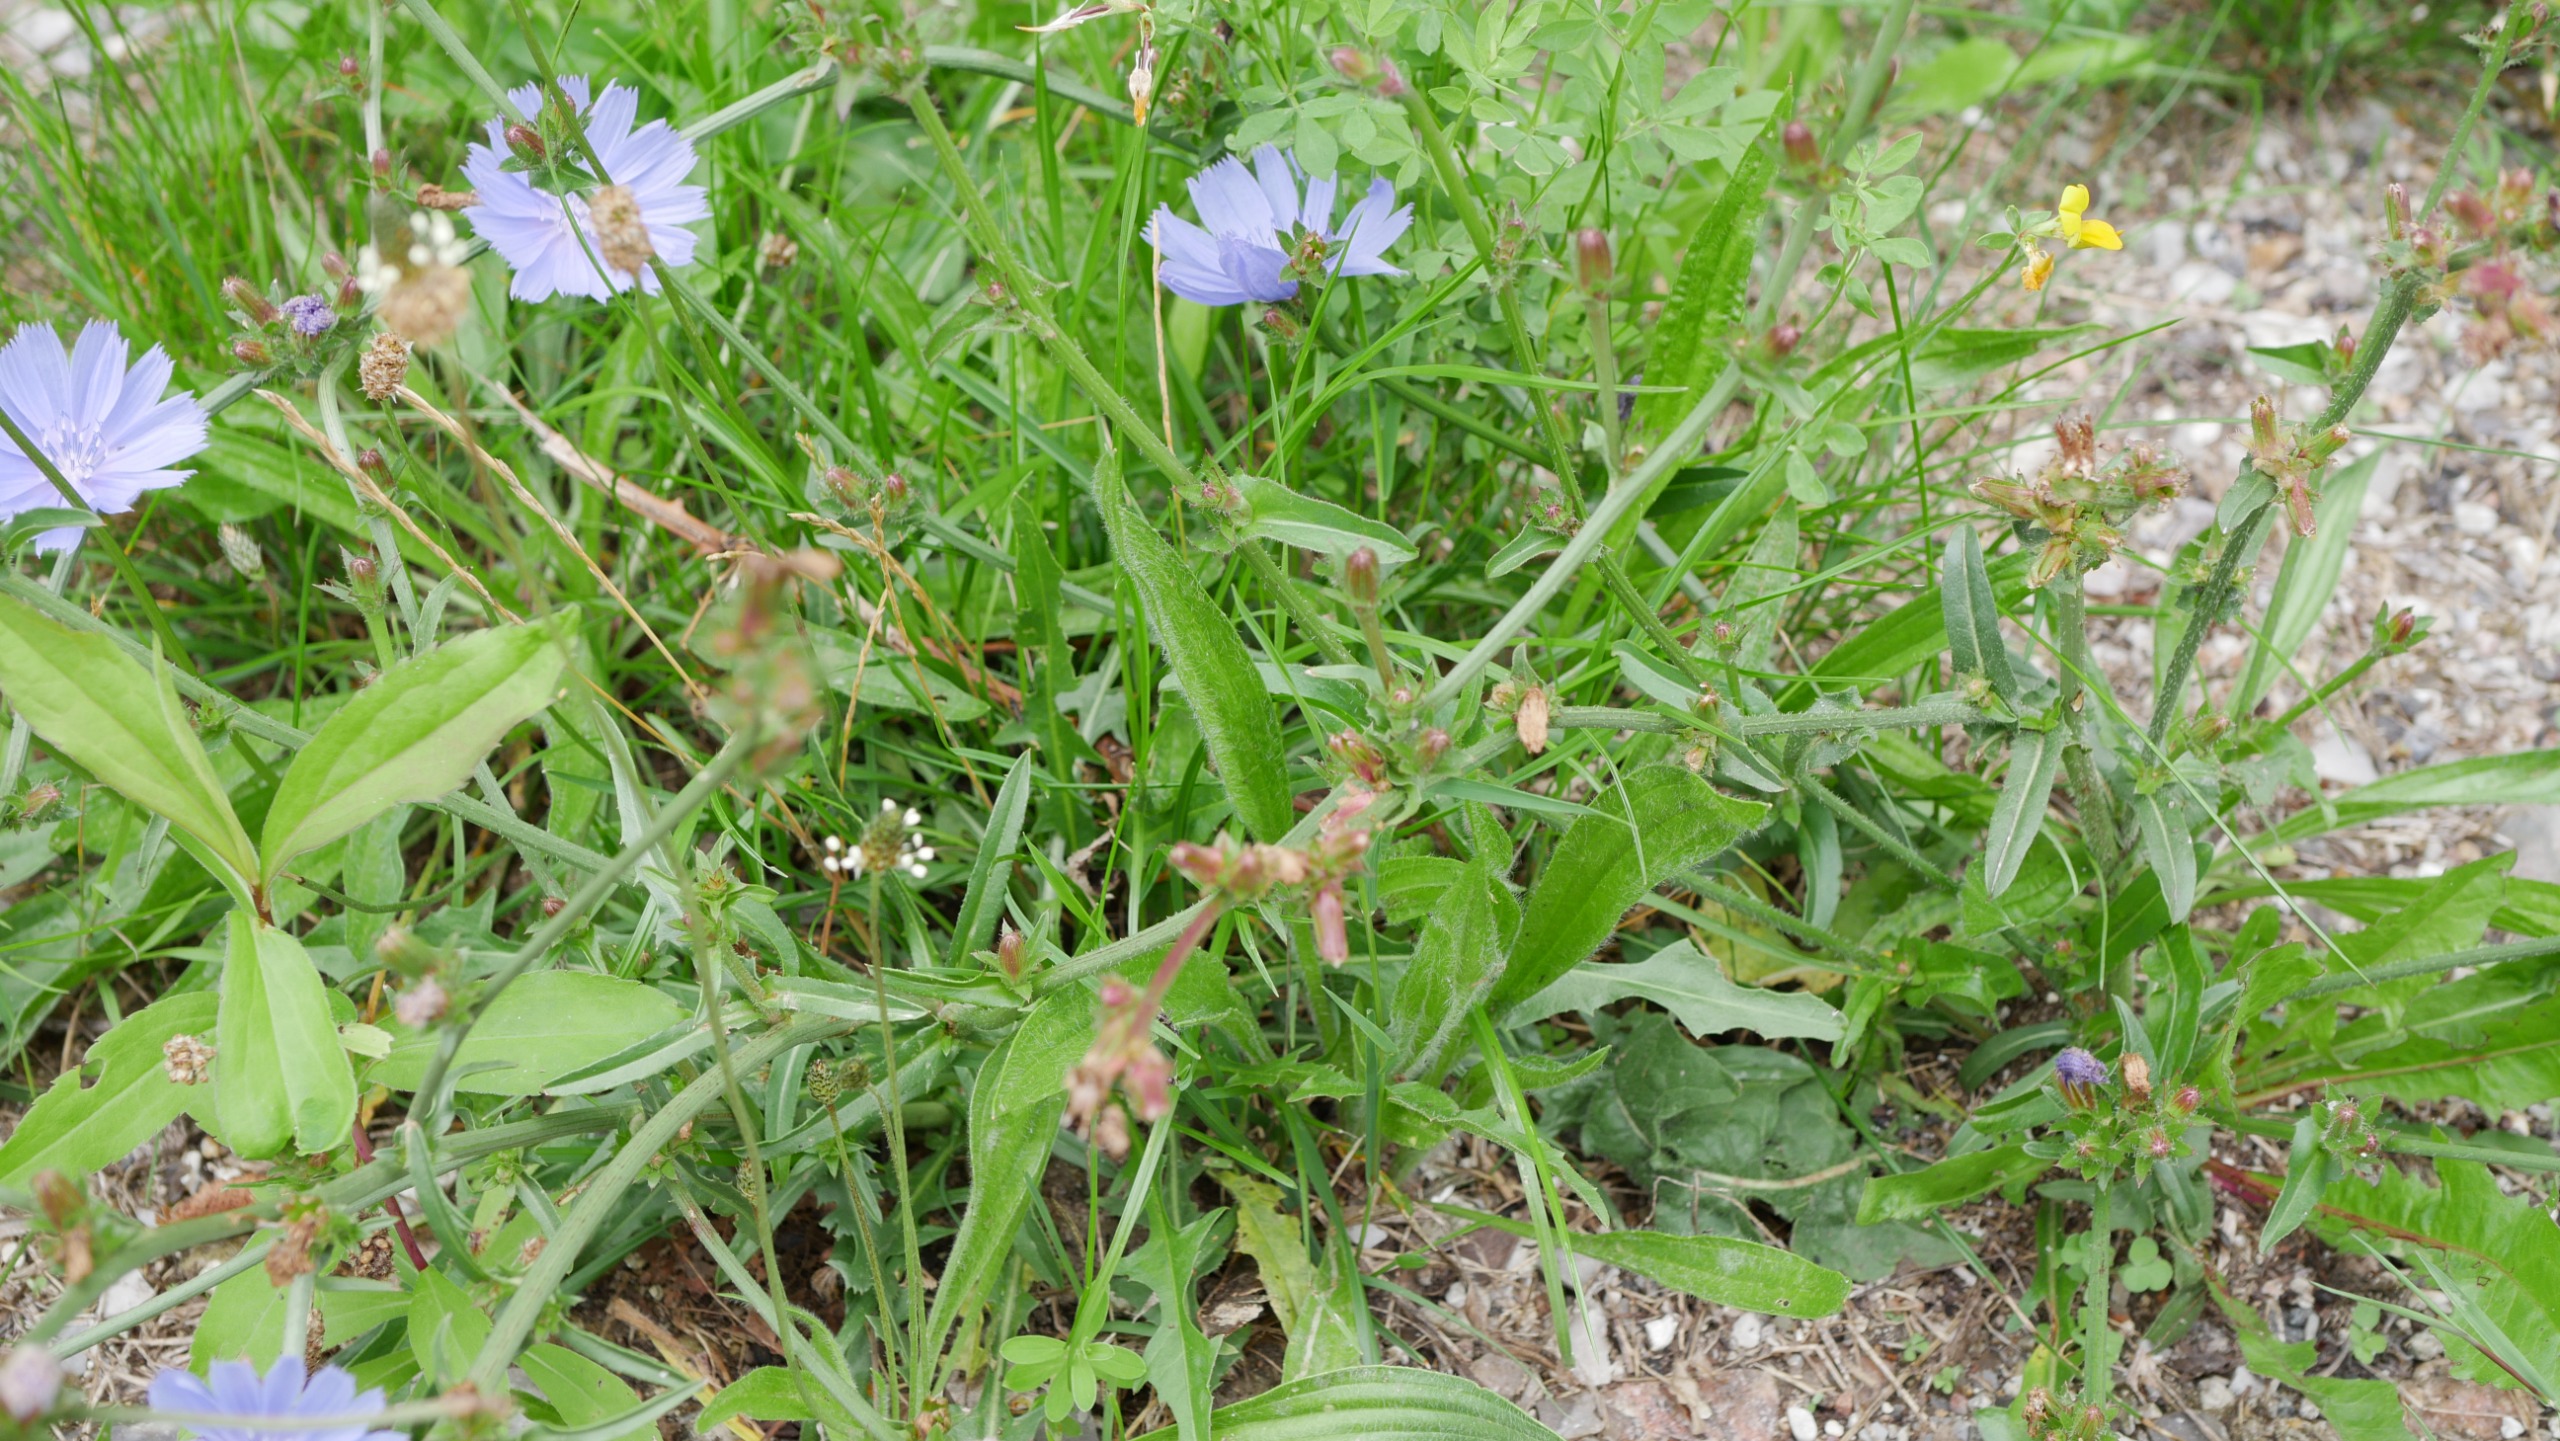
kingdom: Plantae
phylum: Tracheophyta
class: Magnoliopsida
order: Asterales
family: Asteraceae
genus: Cichorium
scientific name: Cichorium intybus
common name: Cikorie
